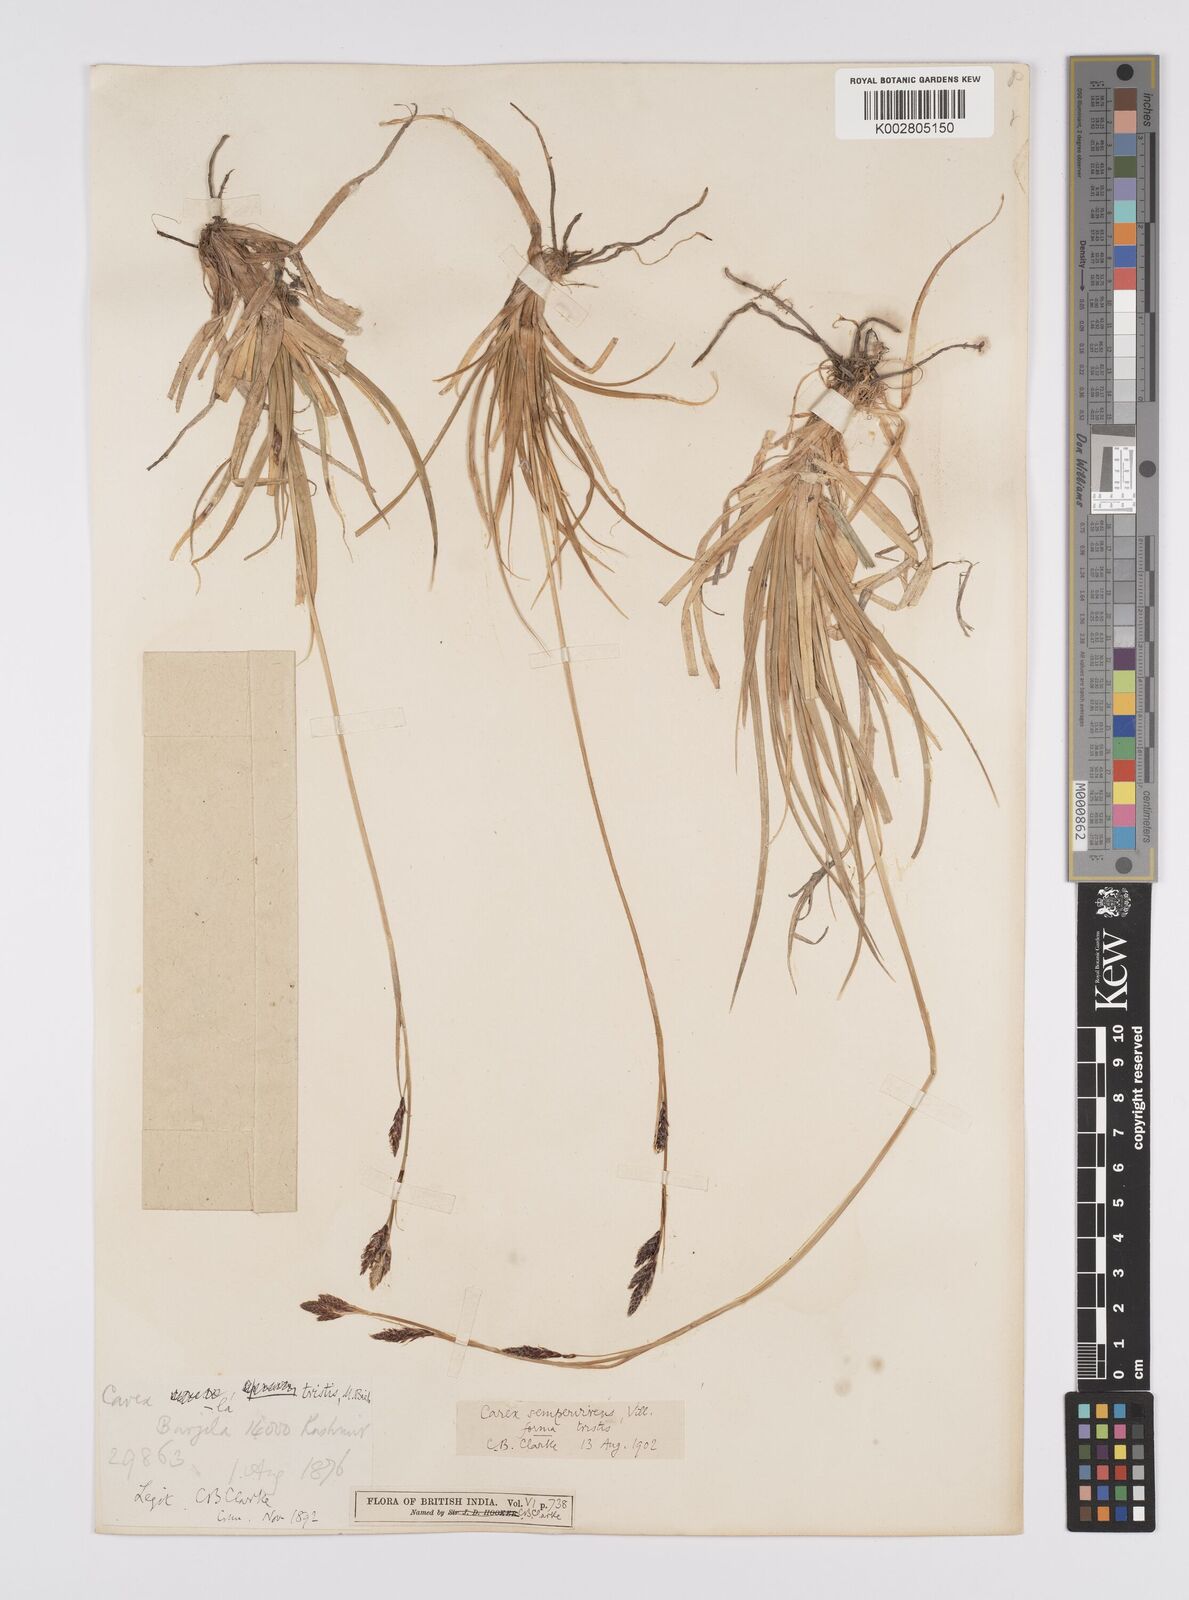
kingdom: Plantae
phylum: Tracheophyta
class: Liliopsida
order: Poales
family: Cyperaceae
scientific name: Cyperaceae
